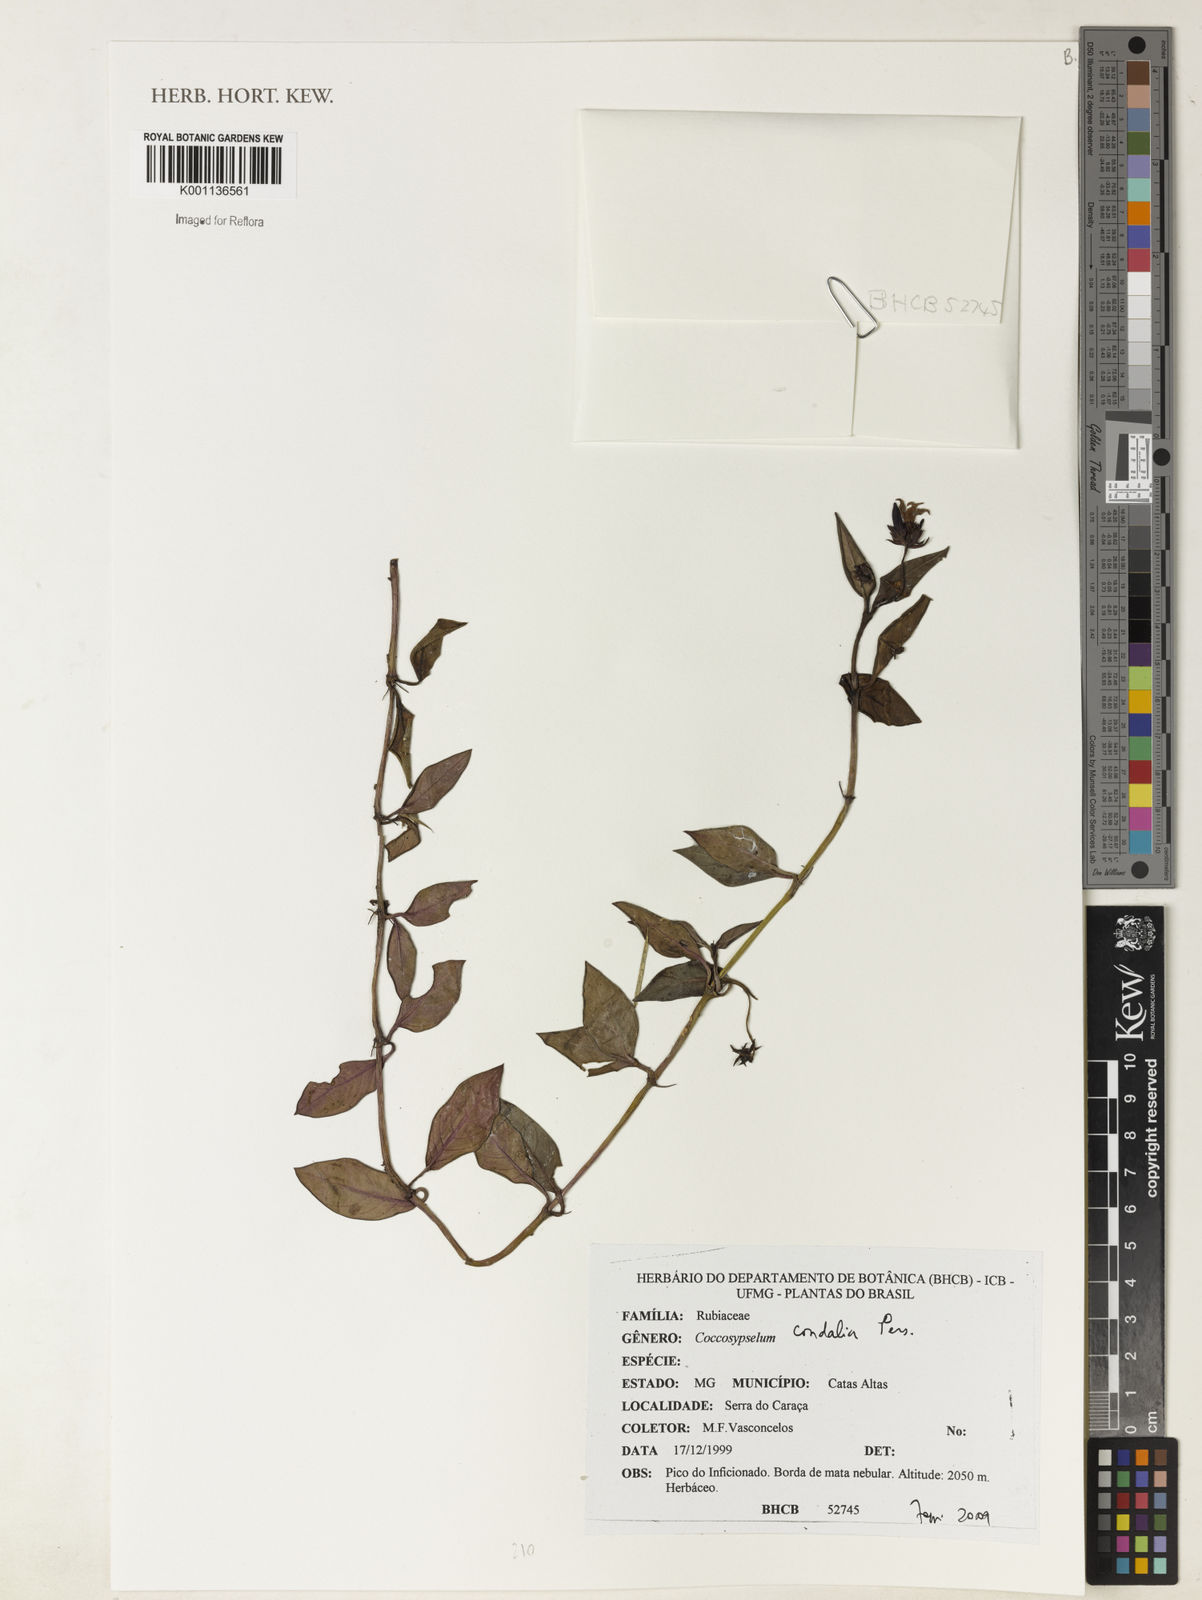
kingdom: Plantae
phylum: Tracheophyta
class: Magnoliopsida
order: Gentianales
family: Rubiaceae
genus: Coccocypselum
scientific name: Coccocypselum condalia
